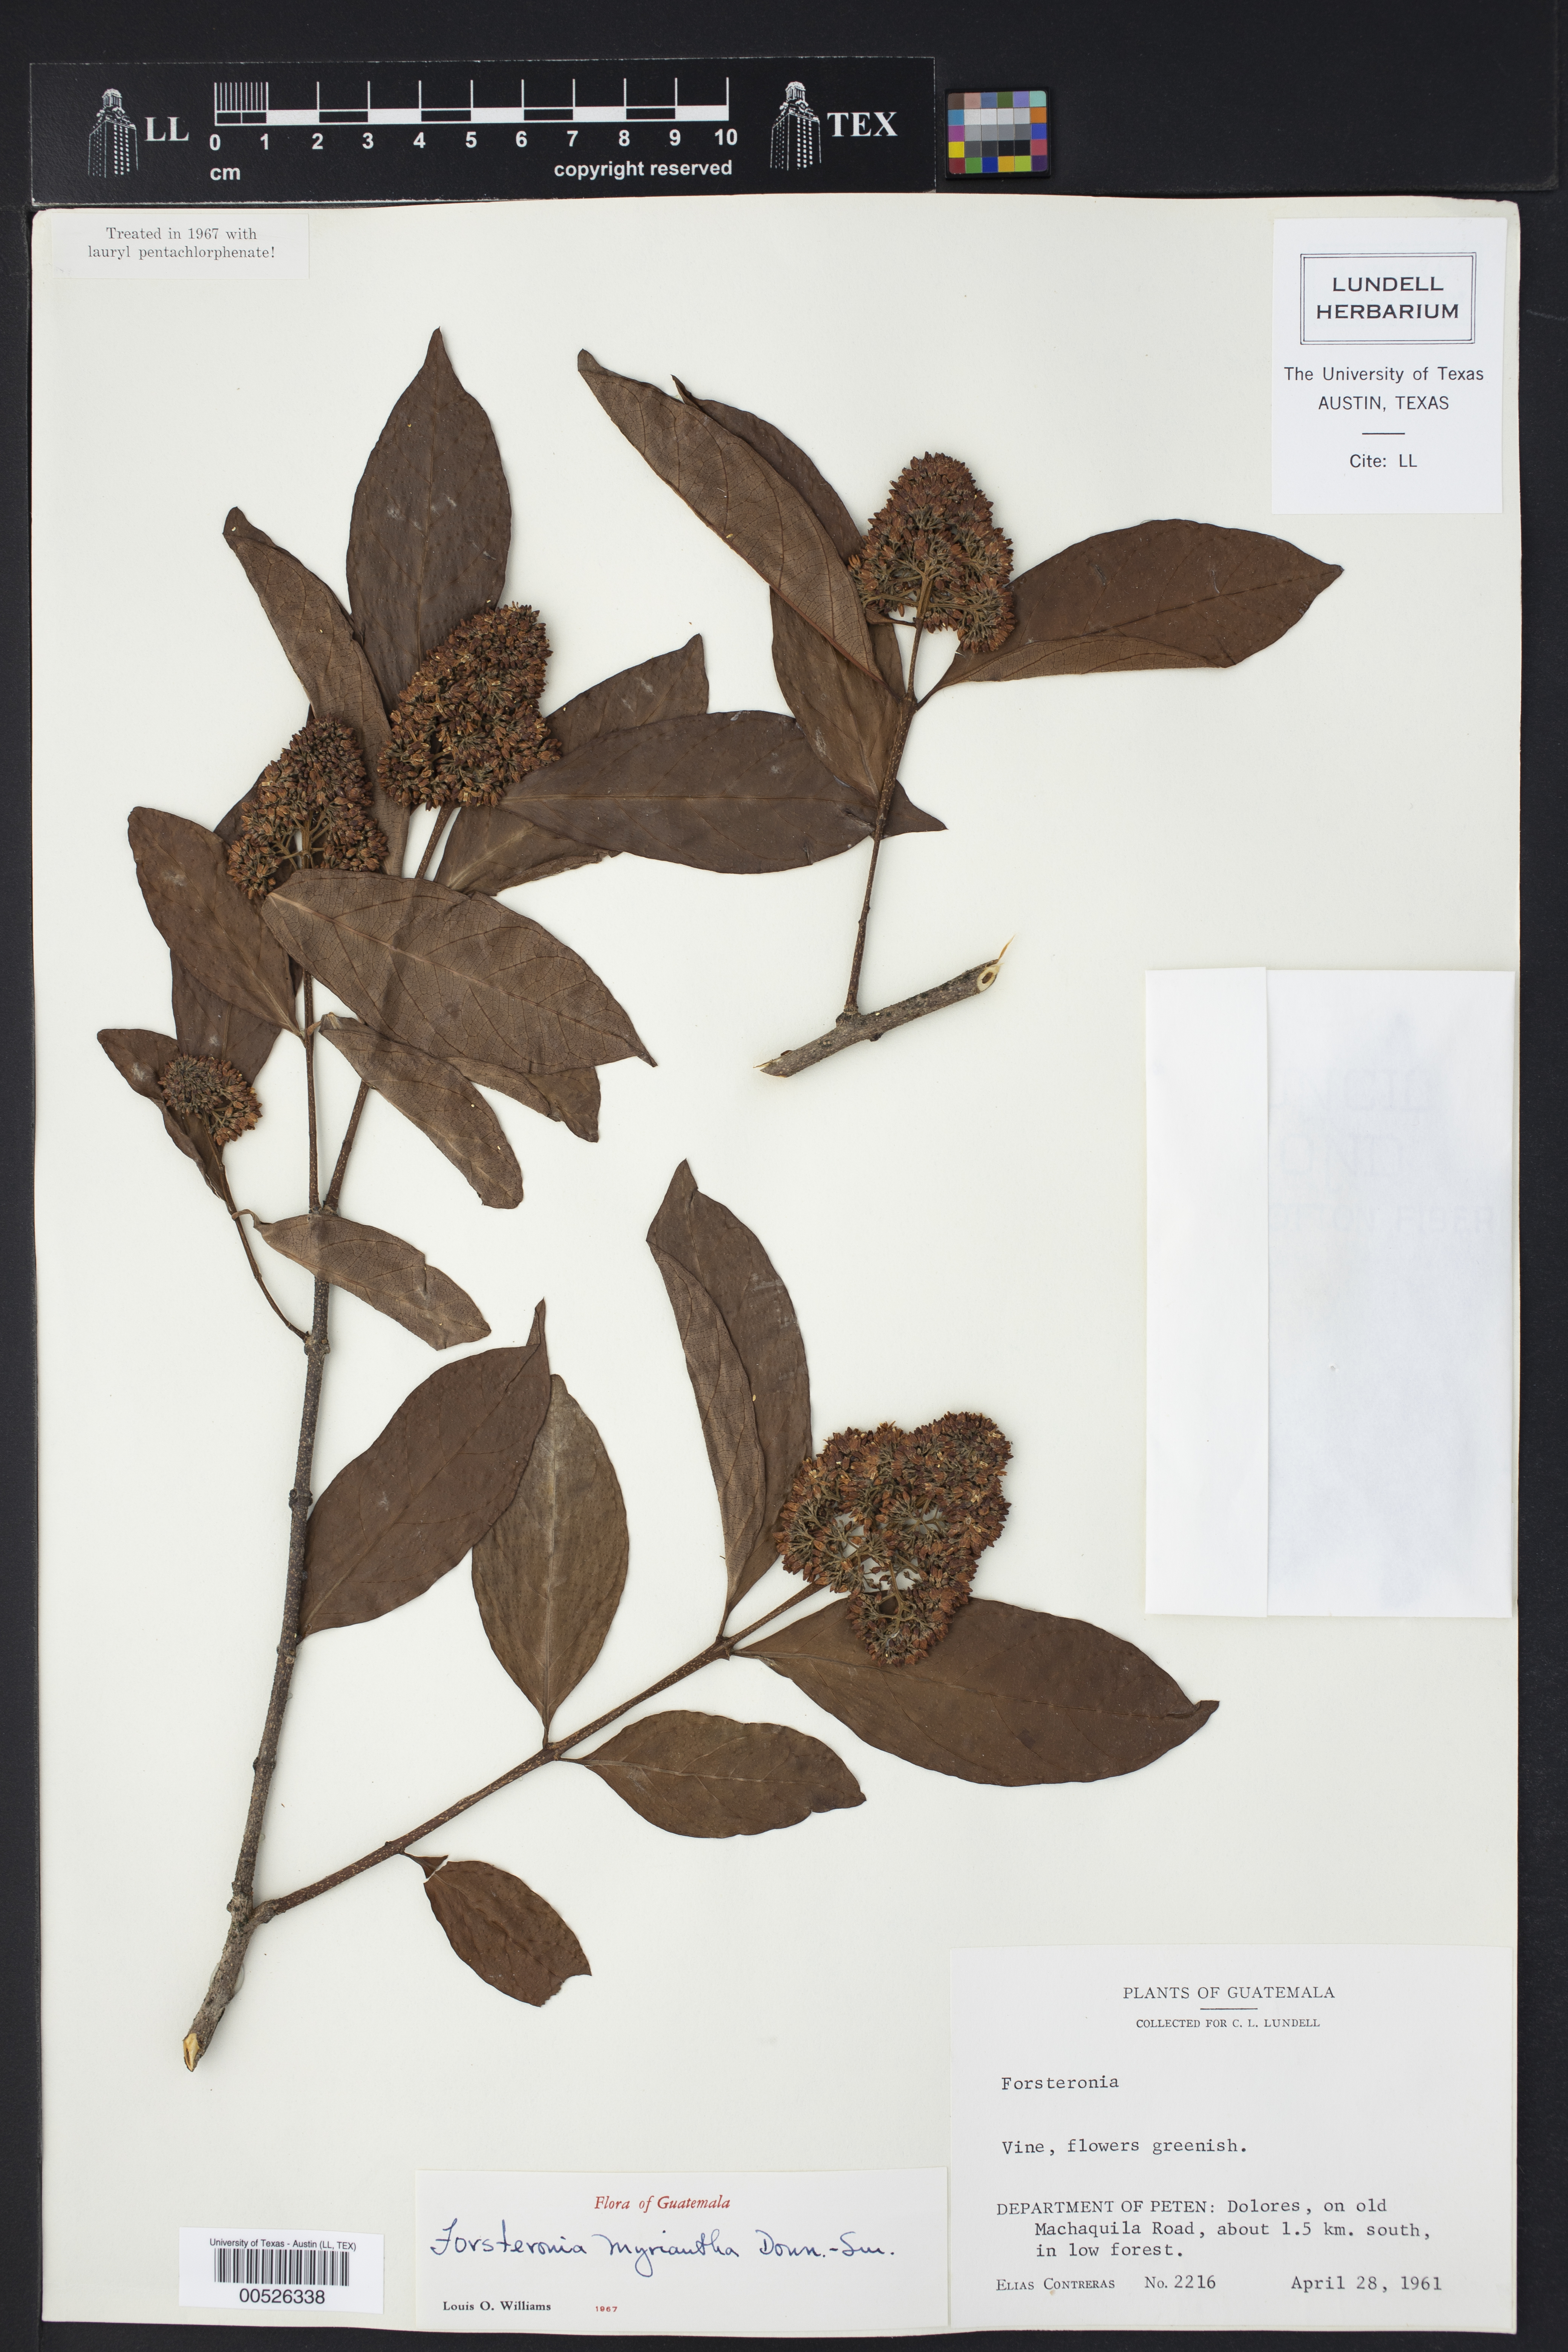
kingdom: Plantae
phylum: Tracheophyta
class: Magnoliopsida
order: Gentianales
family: Apocynaceae
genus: Forsteronia
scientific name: Forsteronia myriantha
